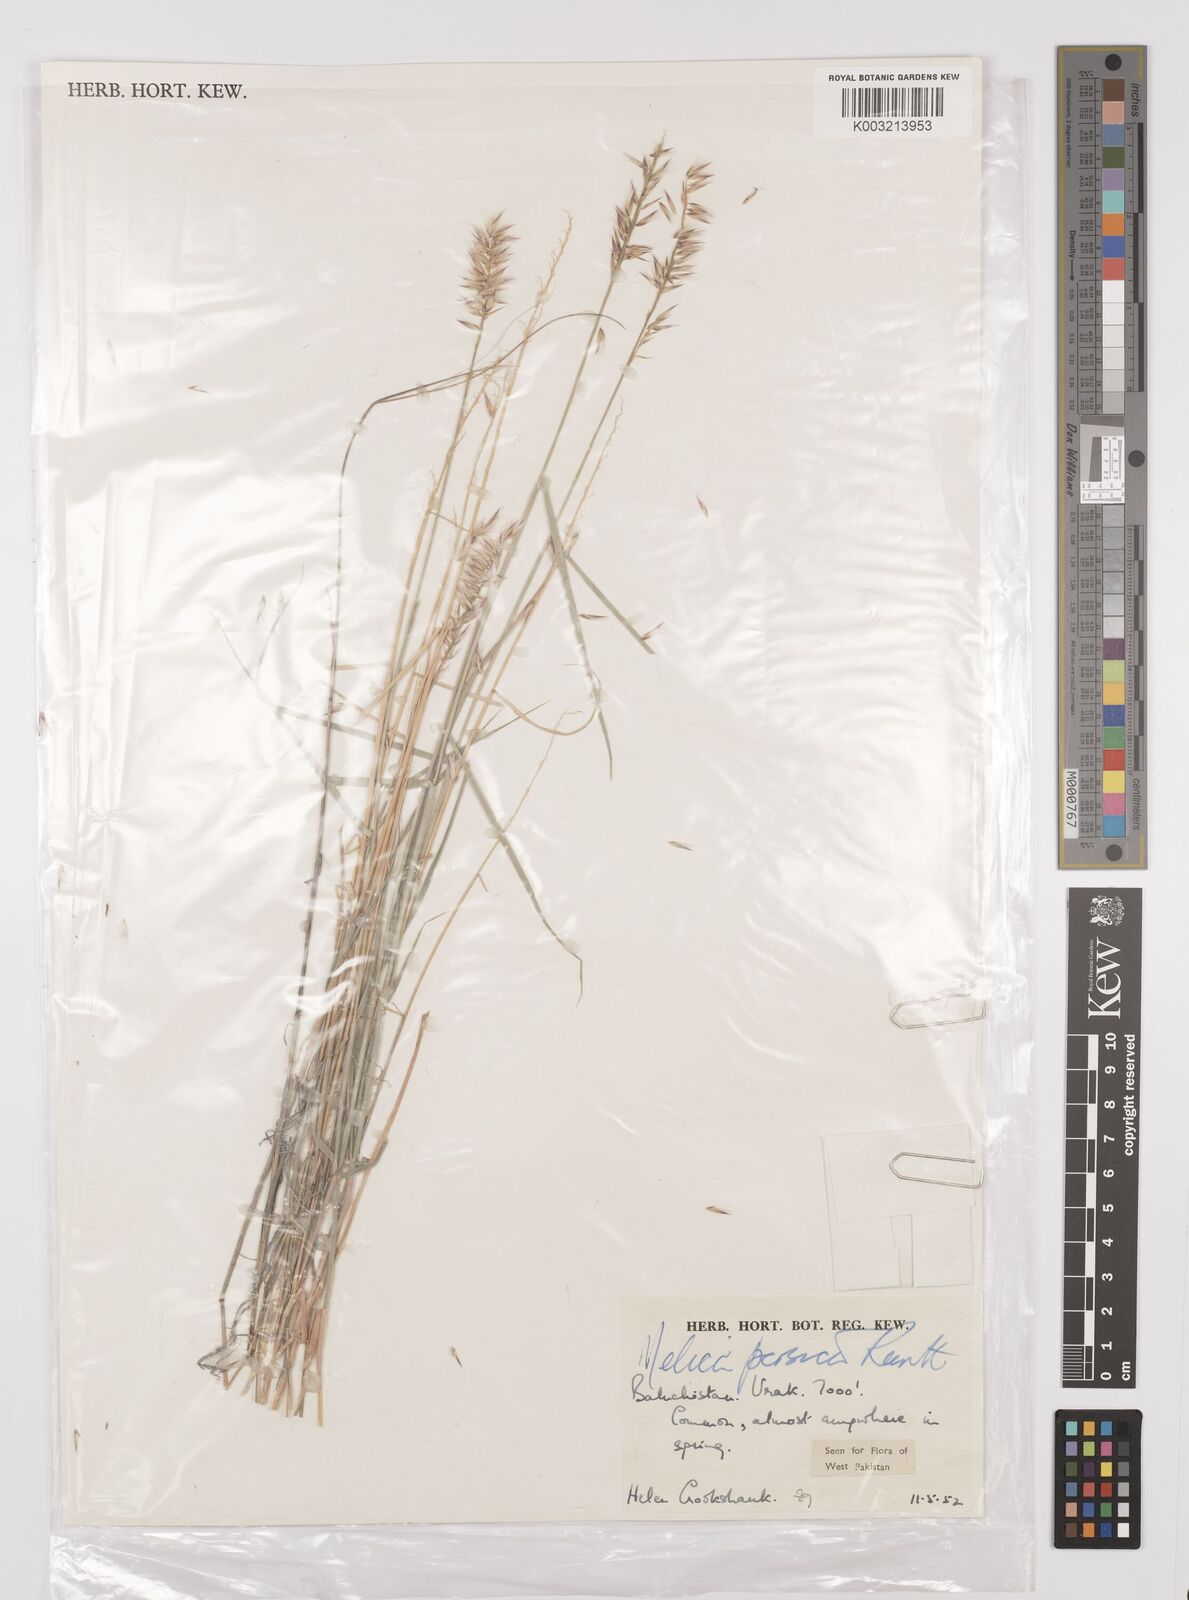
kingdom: Plantae
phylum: Tracheophyta
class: Liliopsida
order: Poales
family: Poaceae
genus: Melica
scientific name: Melica persica
